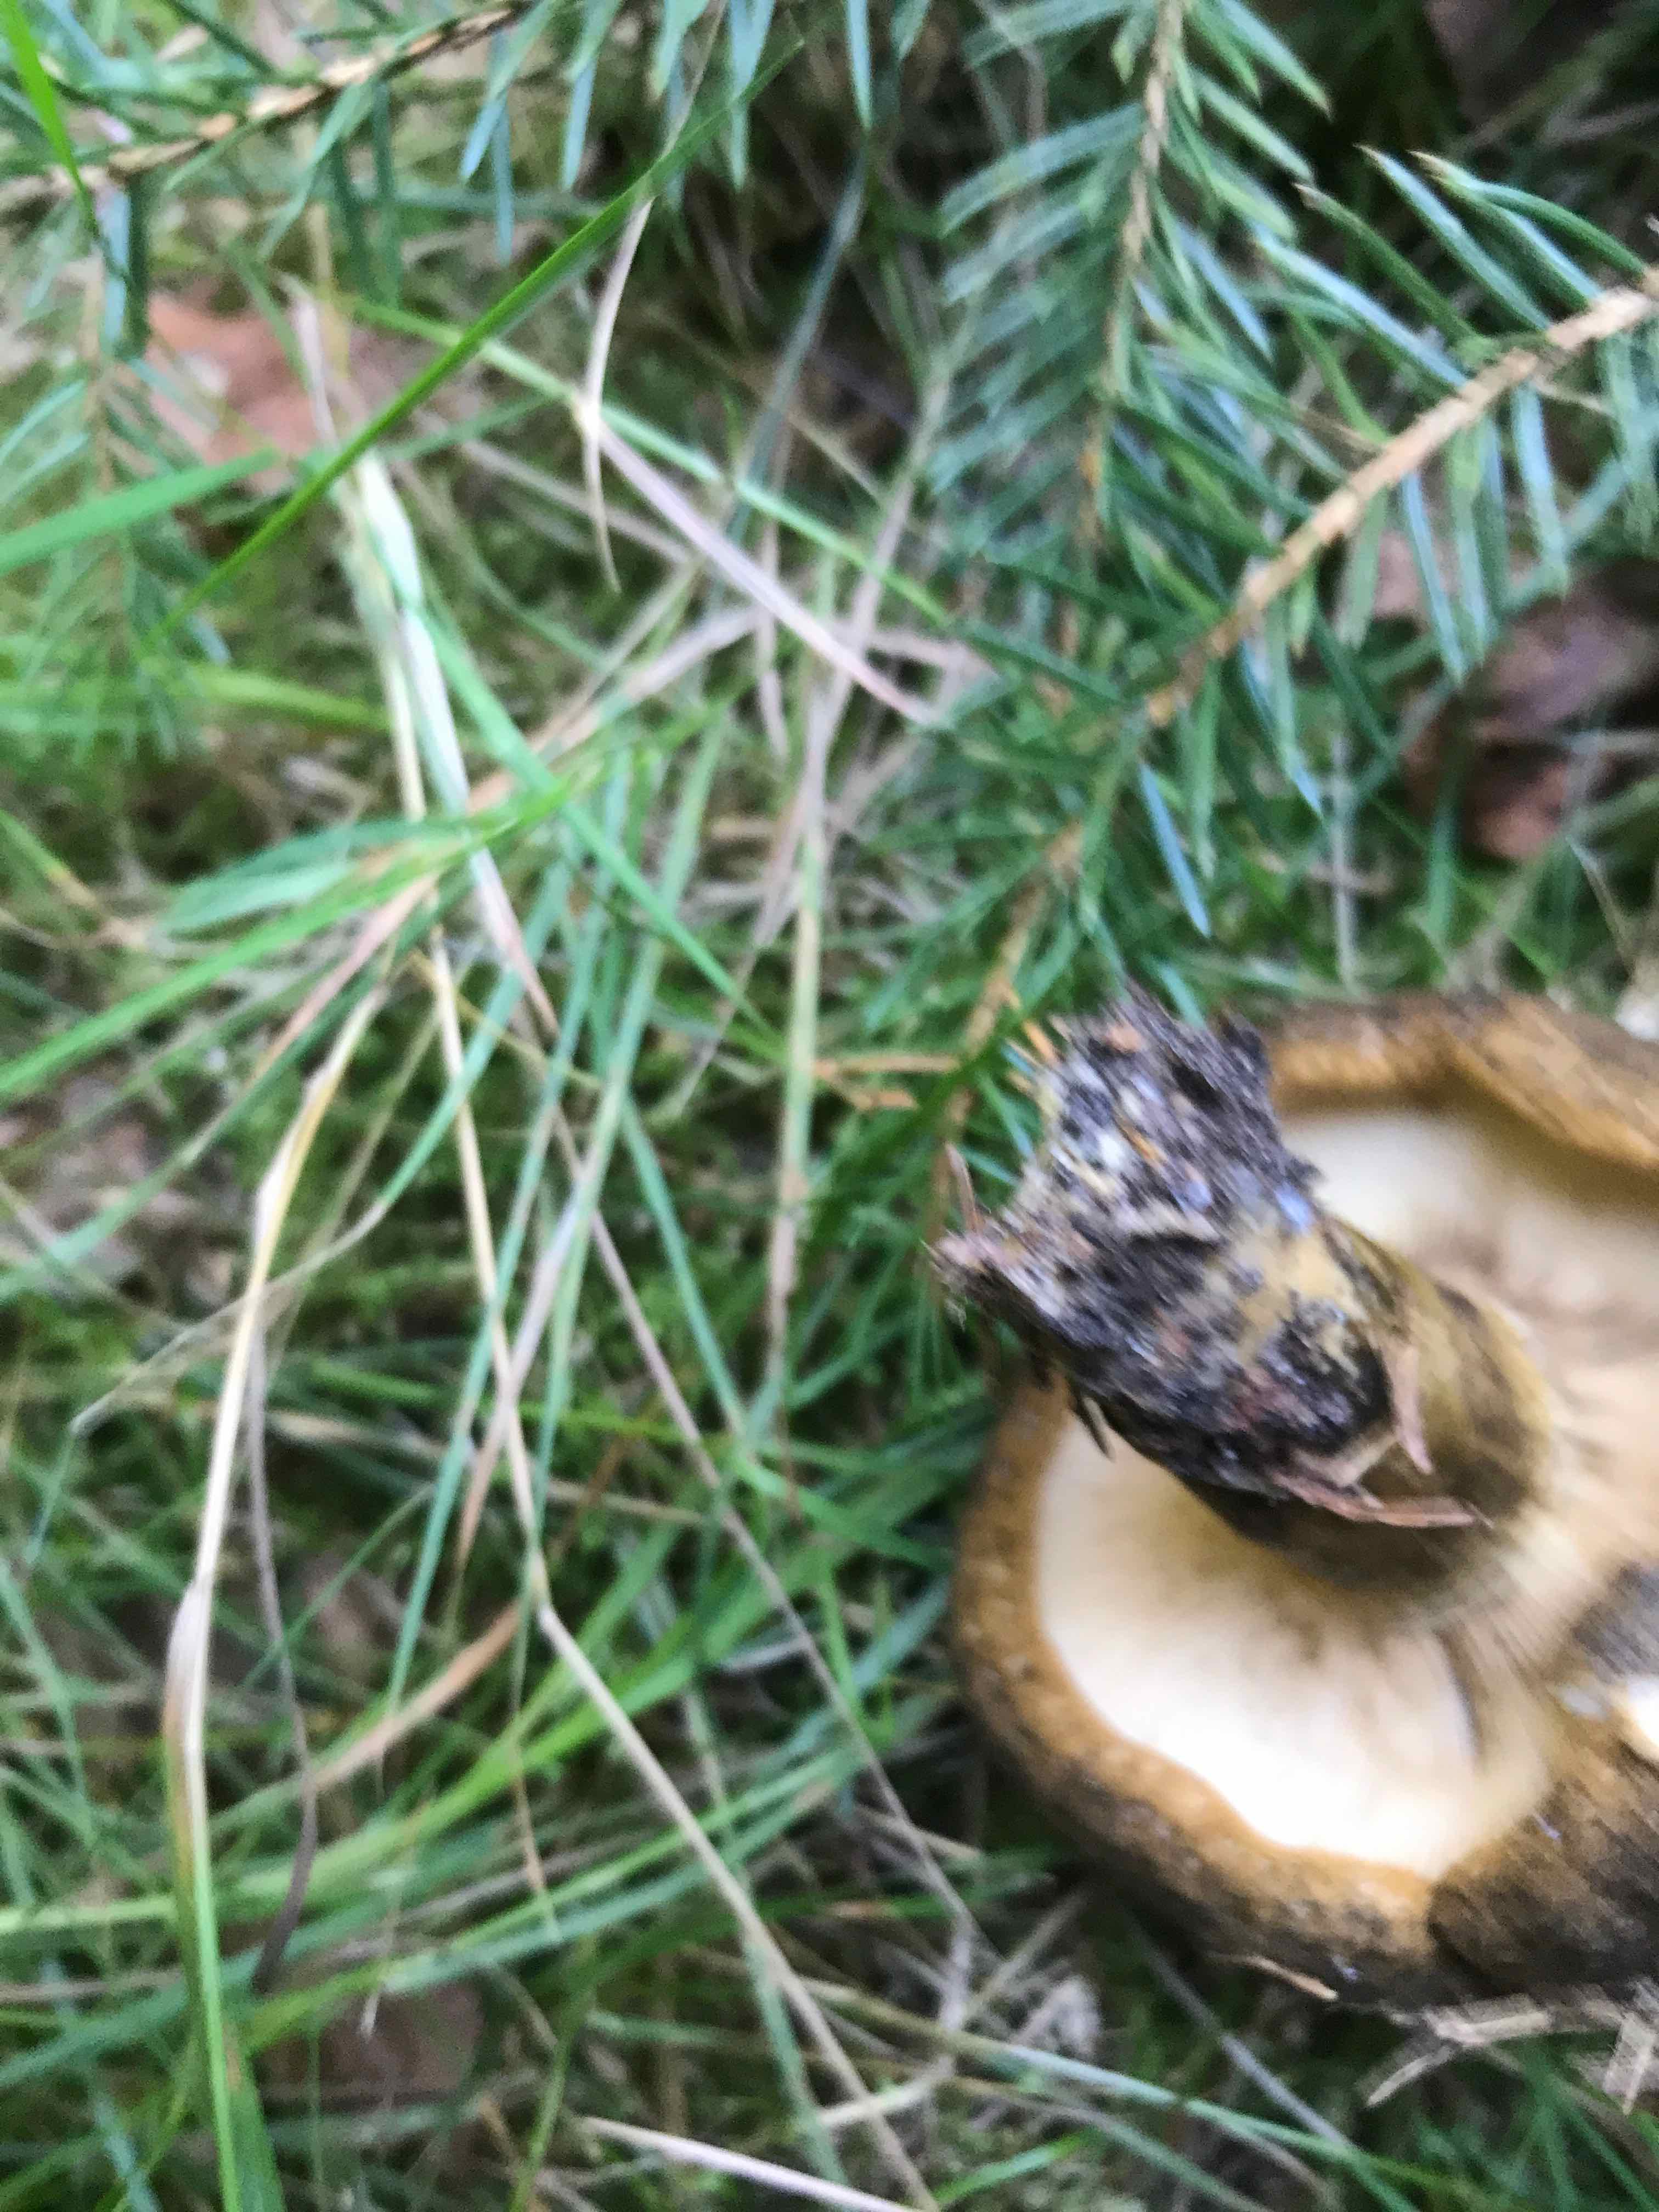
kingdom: Fungi
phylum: Basidiomycota
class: Agaricomycetes
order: Boletales
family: Paxillaceae
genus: Paxillus
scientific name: Paxillus involutus
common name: almindelig netbladhat
